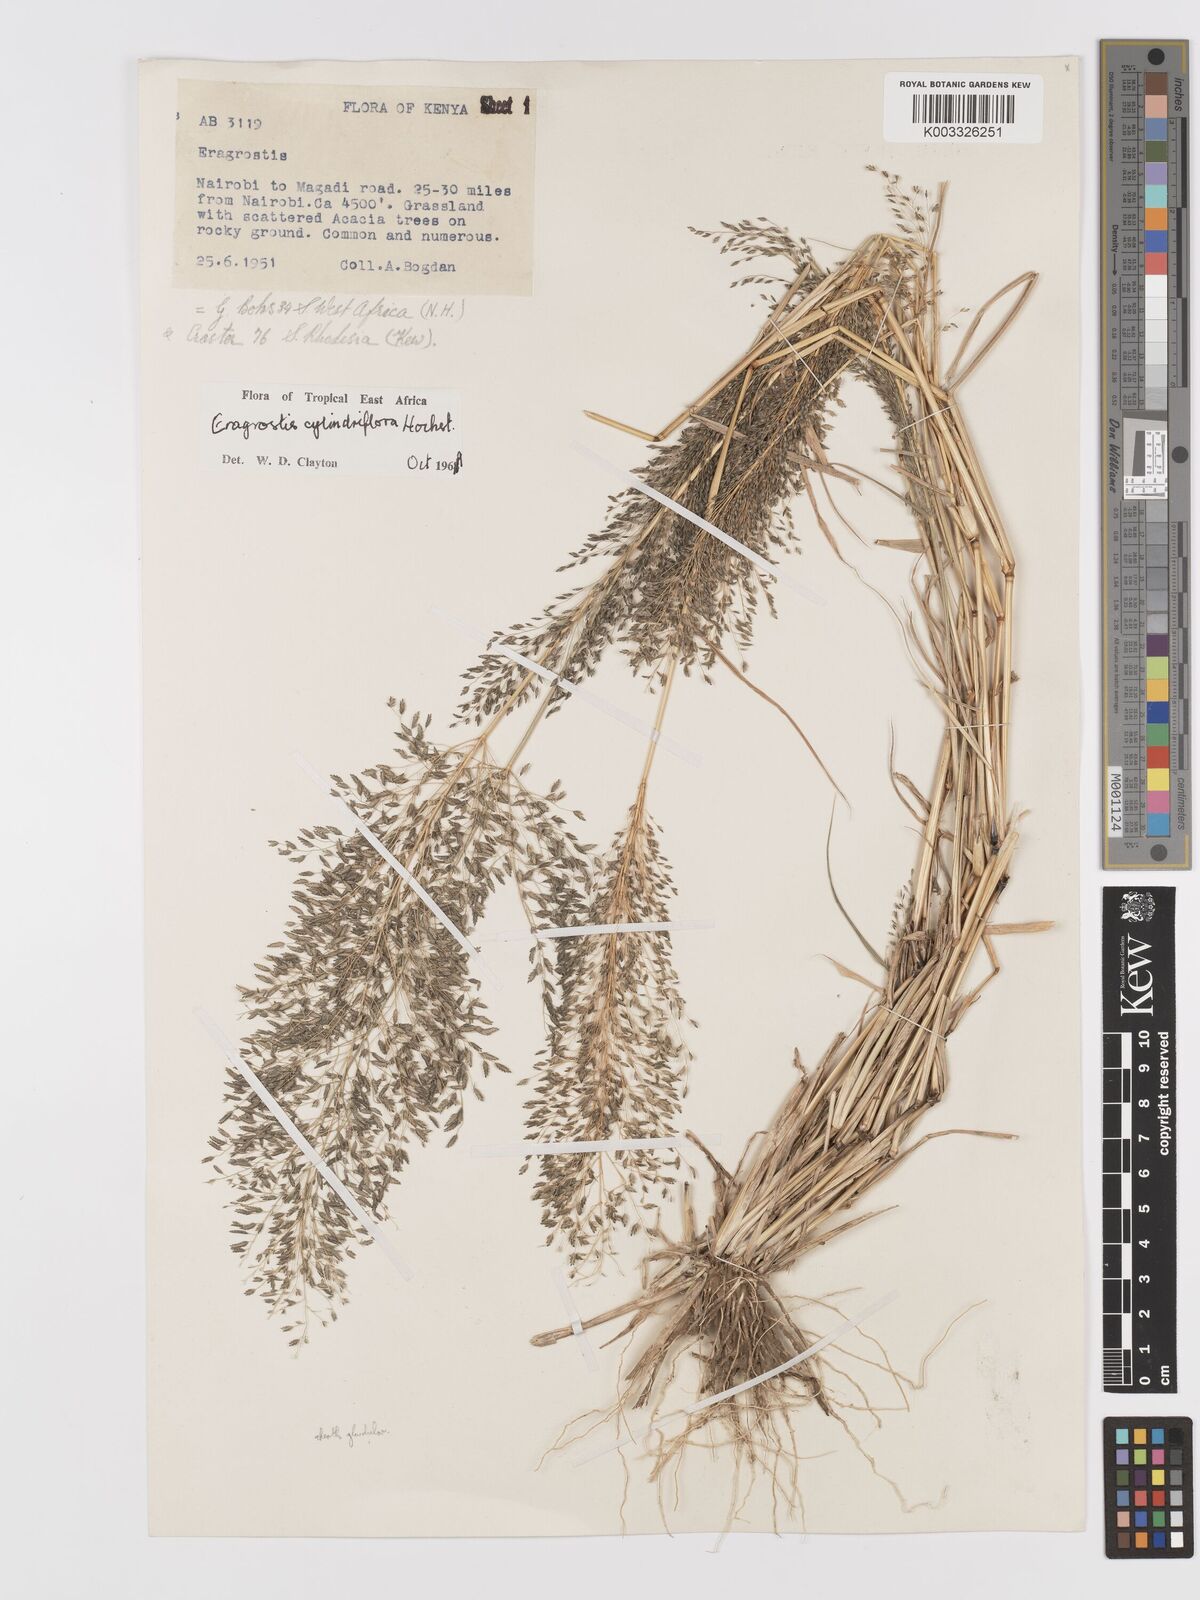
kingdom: Plantae
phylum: Tracheophyta
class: Liliopsida
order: Poales
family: Poaceae
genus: Eragrostis
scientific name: Eragrostis cylindriflora
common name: Cylinderflower lovegrass
